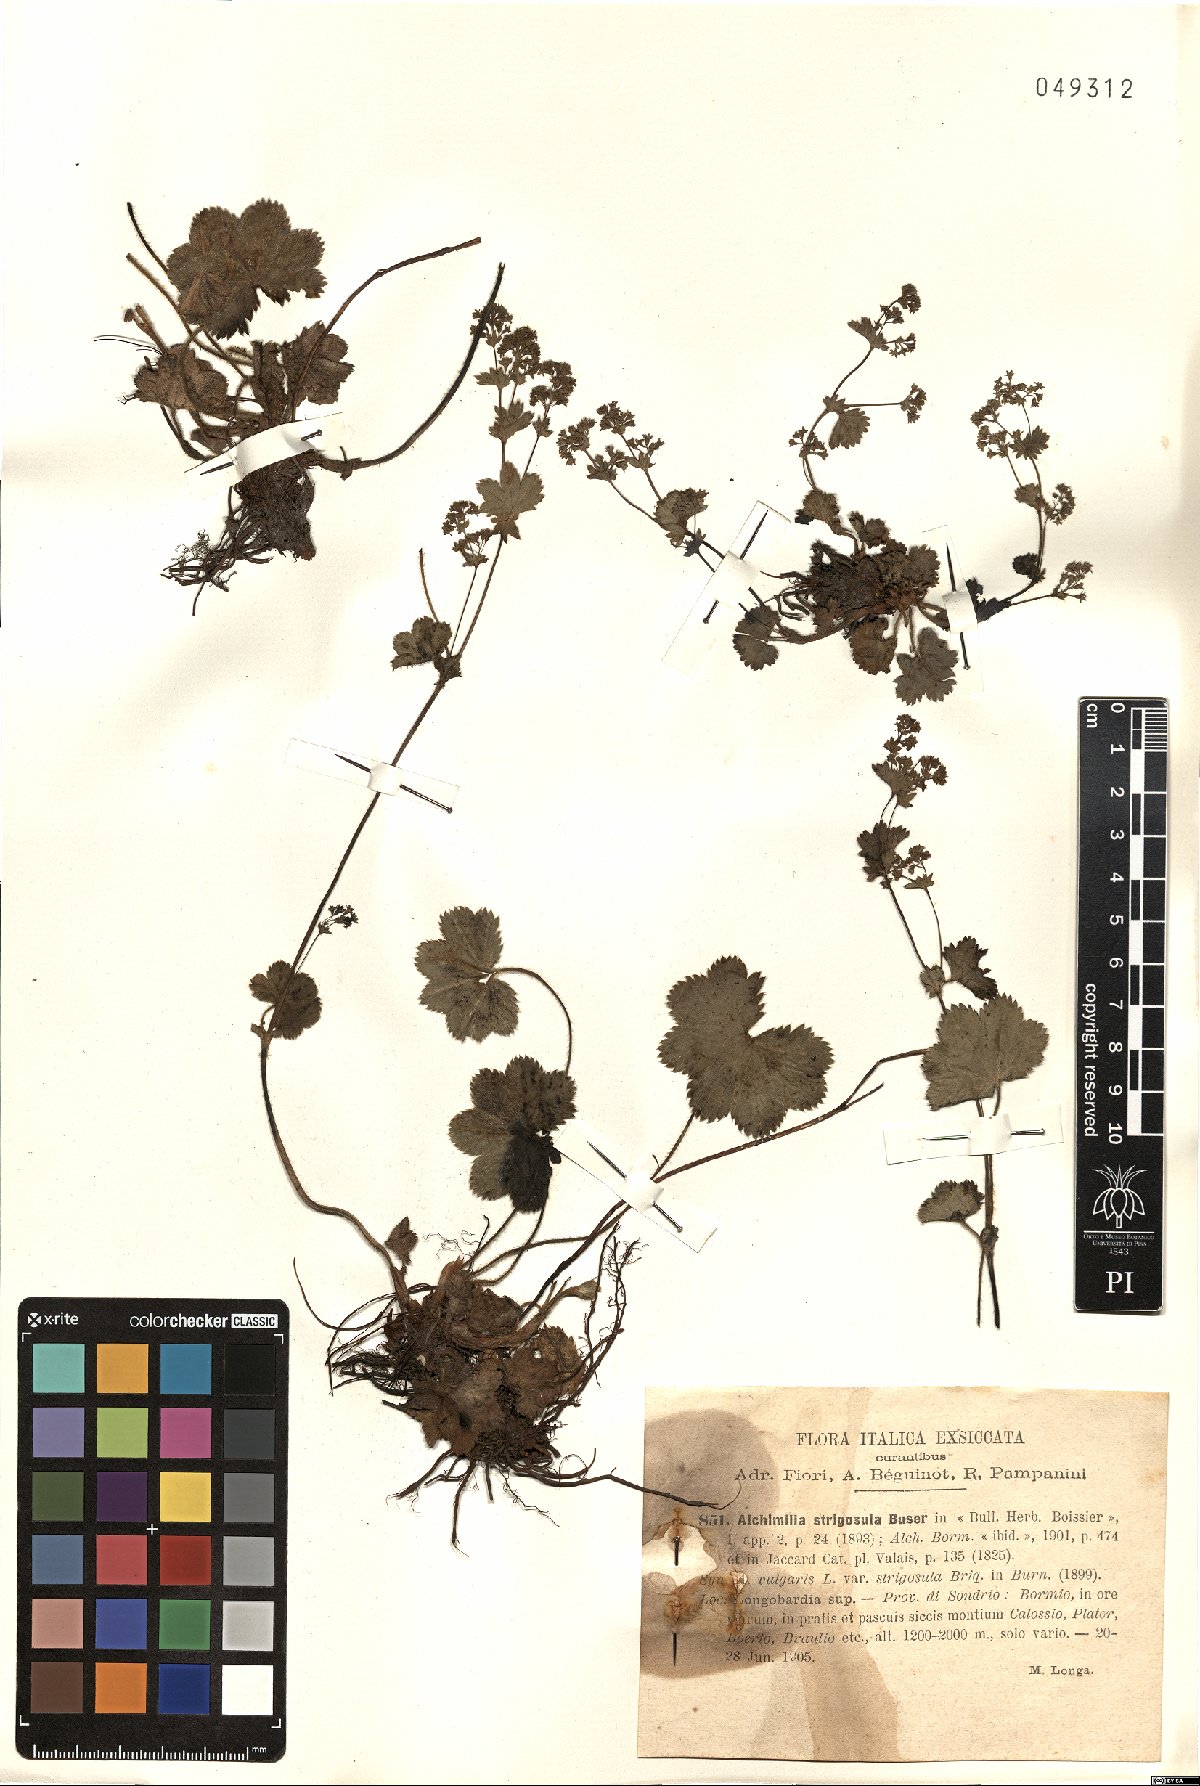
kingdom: Plantae
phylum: Tracheophyta
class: Magnoliopsida
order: Rosales
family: Rosaceae
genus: Alchemilla
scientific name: Alchemilla strigosula
